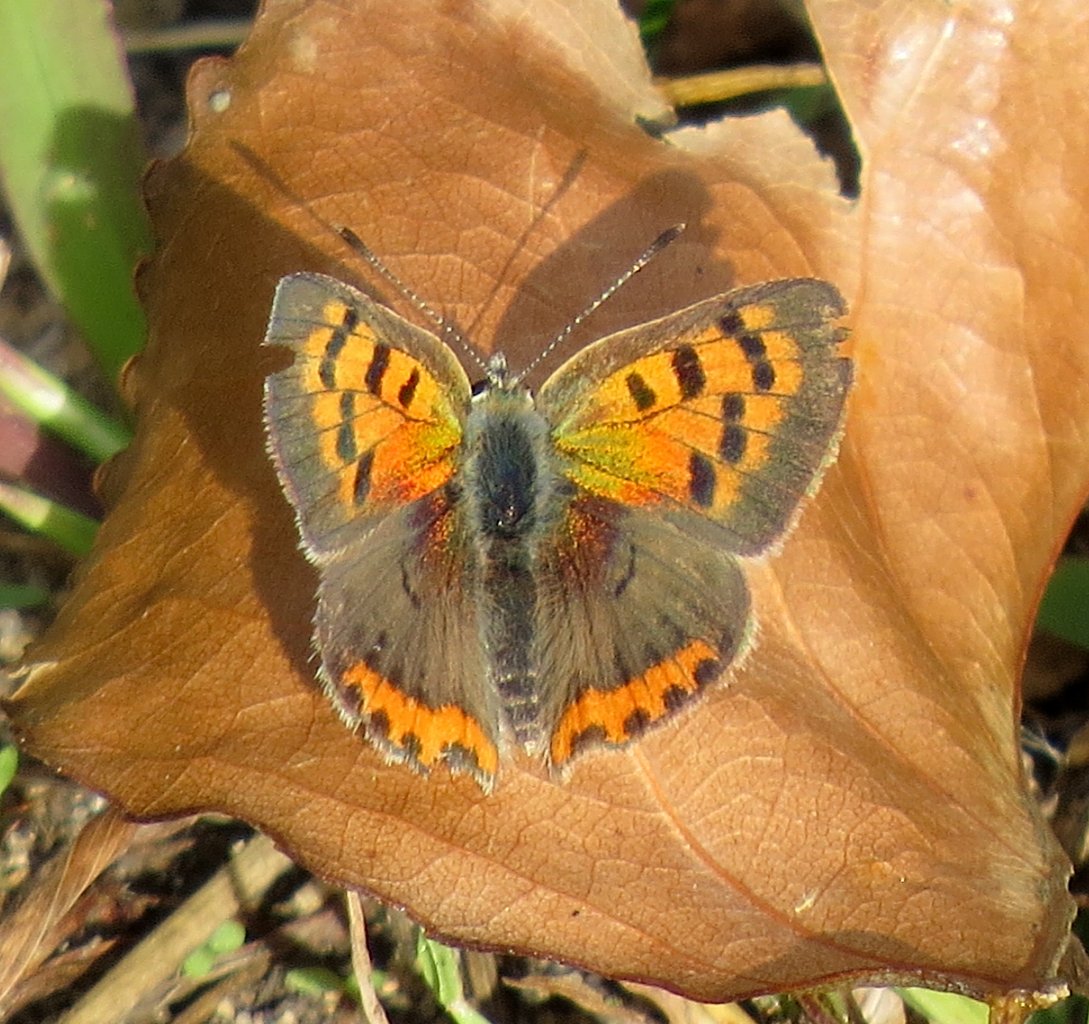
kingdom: Animalia
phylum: Arthropoda
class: Insecta
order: Lepidoptera
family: Sesiidae
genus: Sesia
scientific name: Sesia Lycaena hyllus
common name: Bronze Copper
